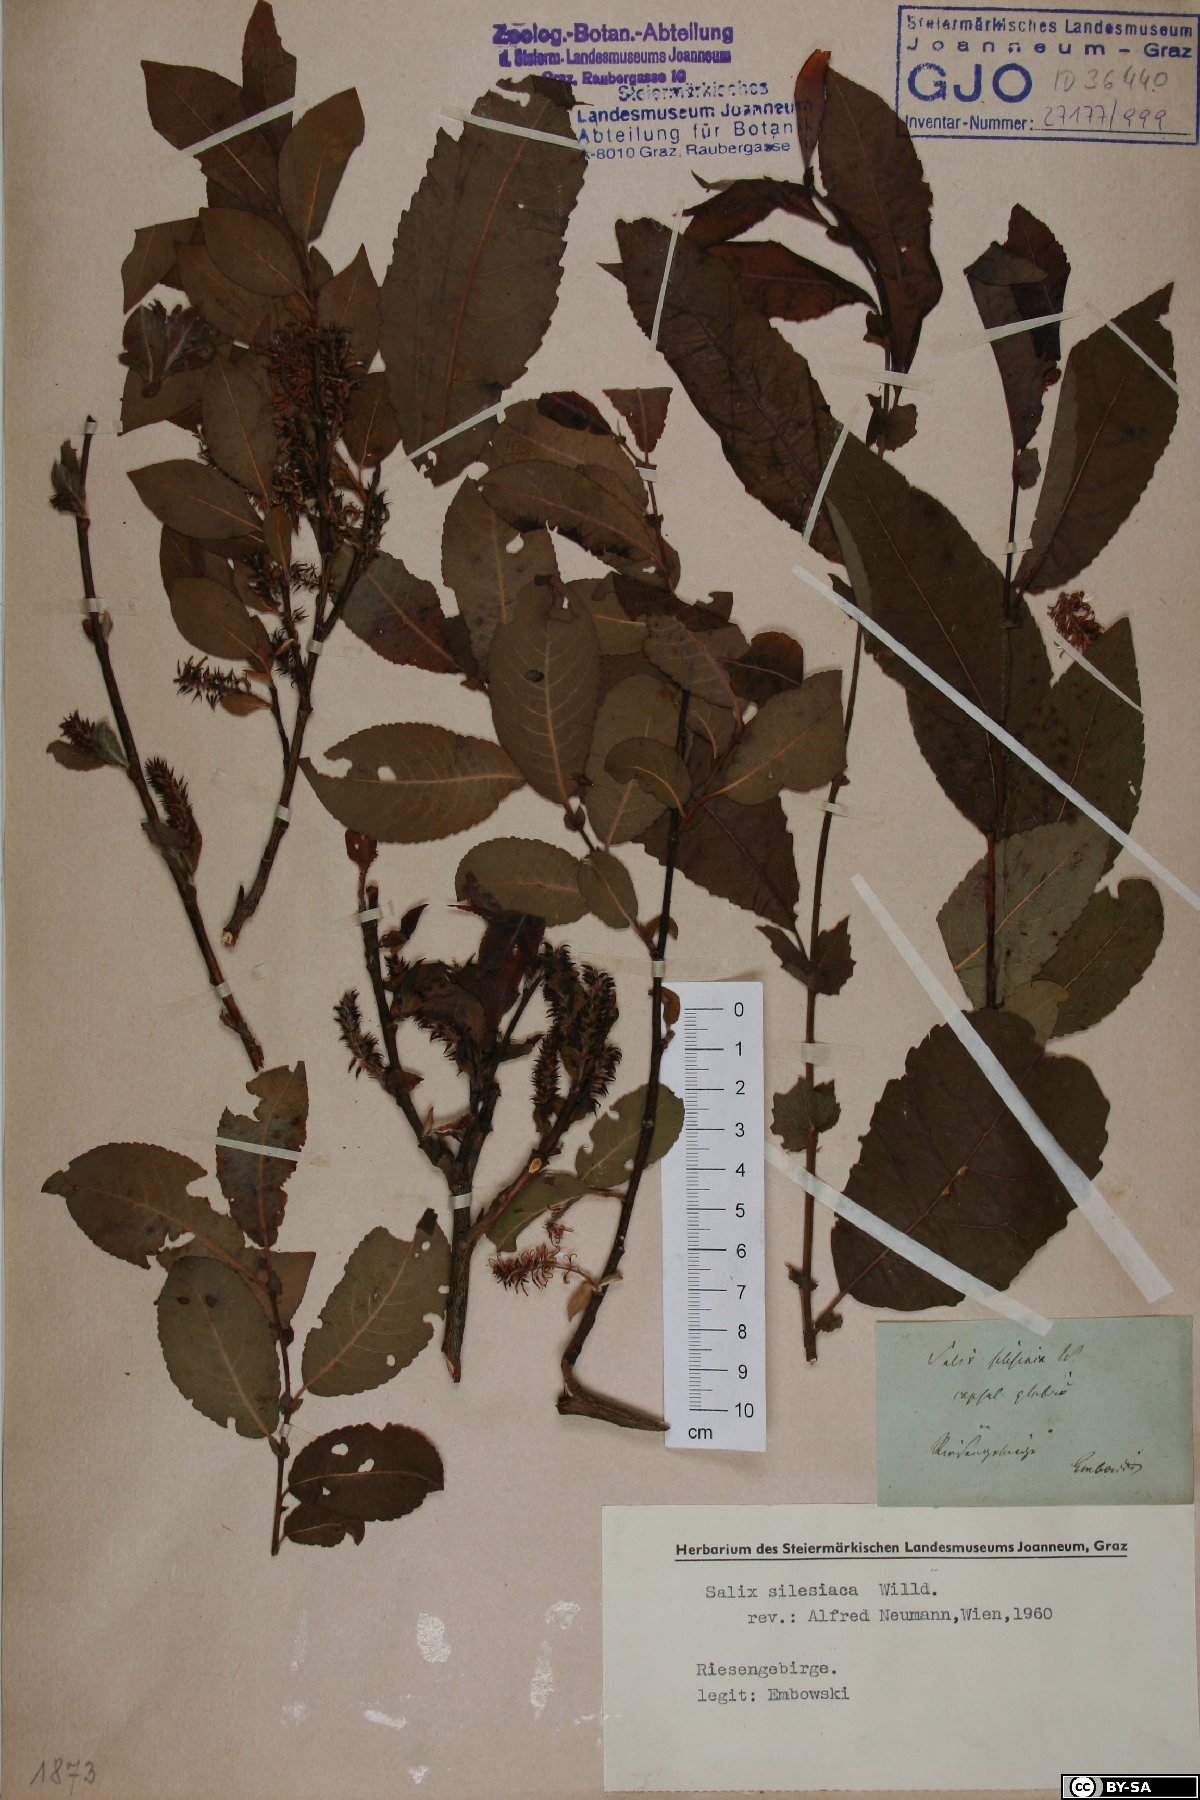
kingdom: Plantae
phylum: Tracheophyta
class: Magnoliopsida
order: Malpighiales
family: Salicaceae
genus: Salix
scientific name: Salix silesiaca
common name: Silesian willow
